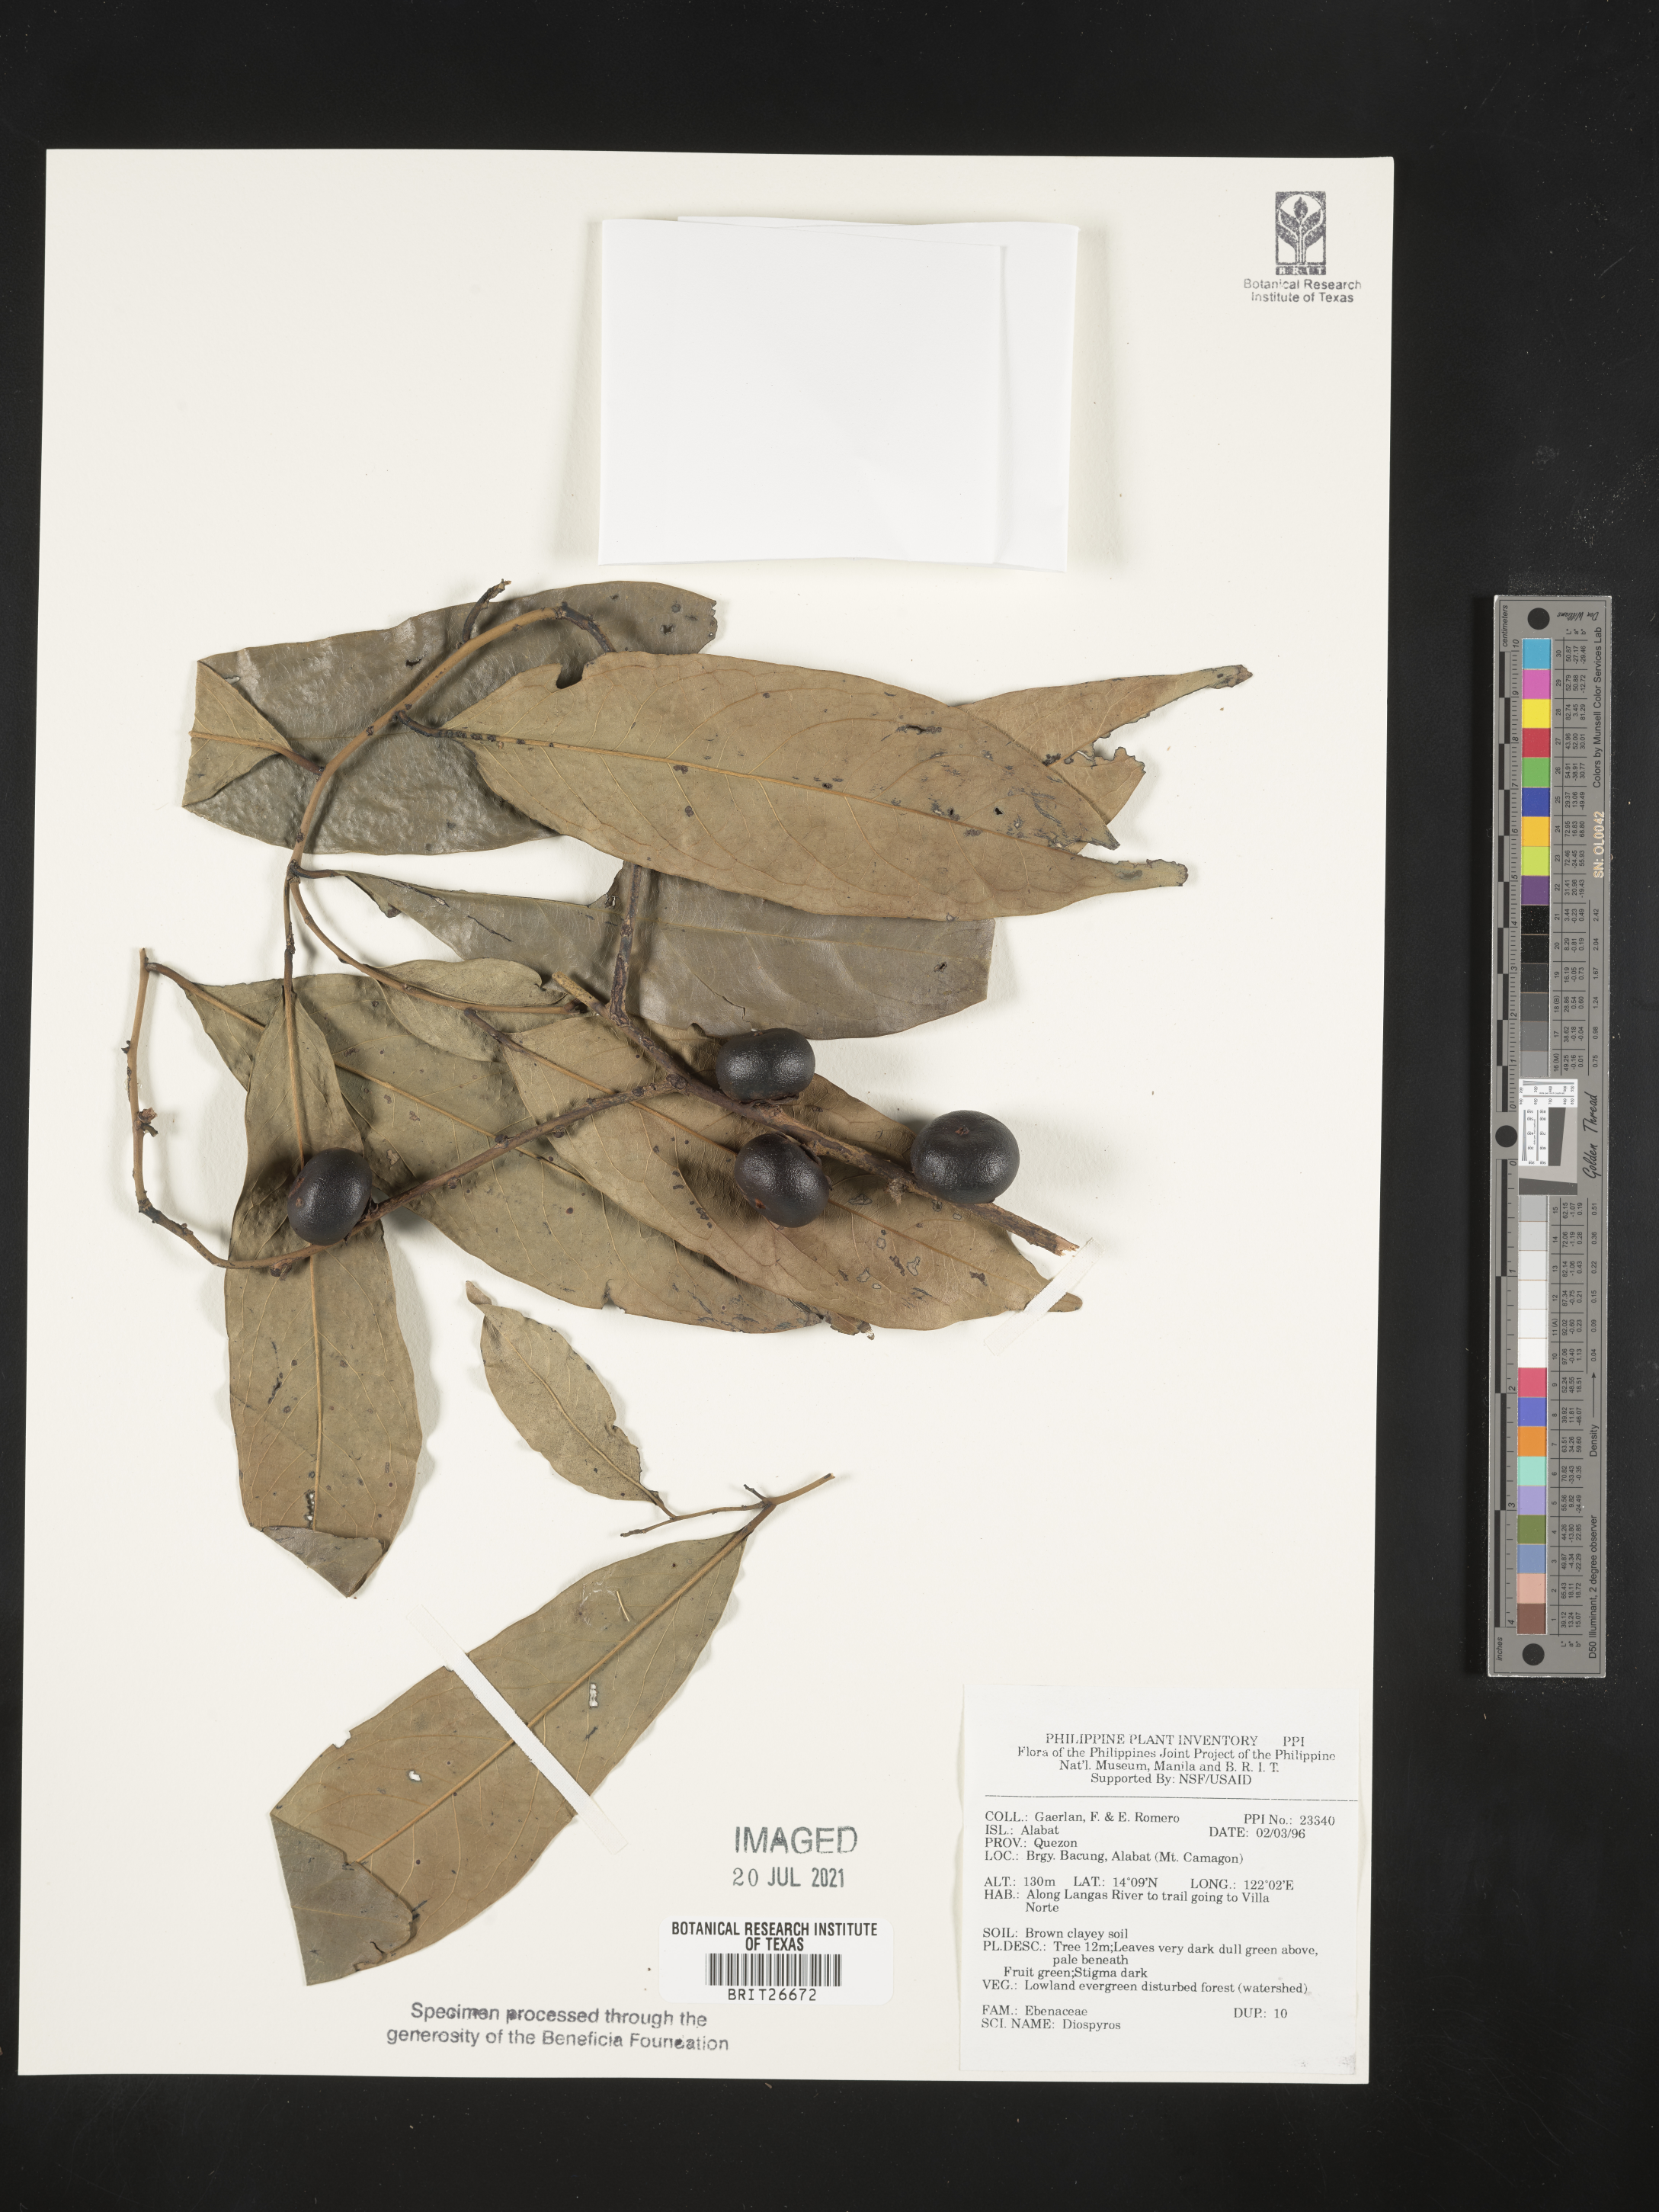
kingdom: Plantae
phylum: Tracheophyta
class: Magnoliopsida
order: Ericales
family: Ebenaceae
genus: Diospyros
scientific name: Diospyros
